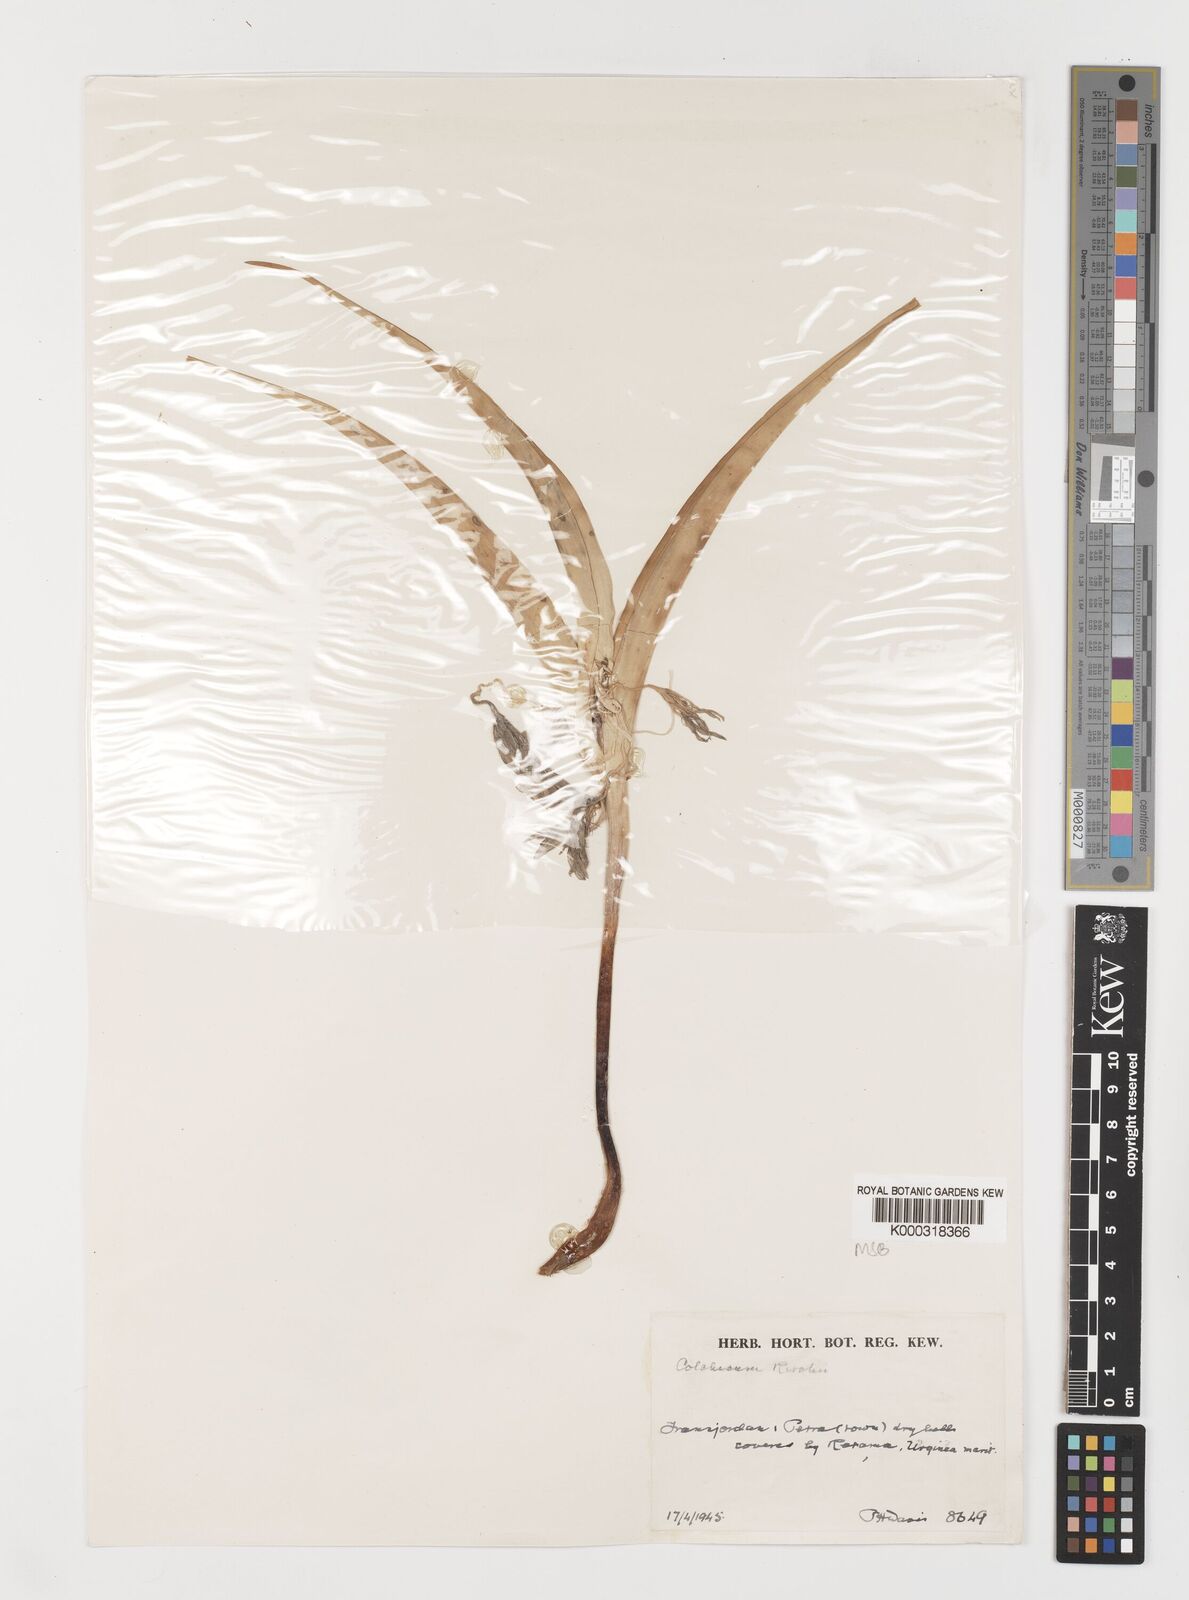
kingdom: Plantae
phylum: Tracheophyta
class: Liliopsida
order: Liliales
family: Colchicaceae
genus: Colchicum
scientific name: Colchicum ritchii
